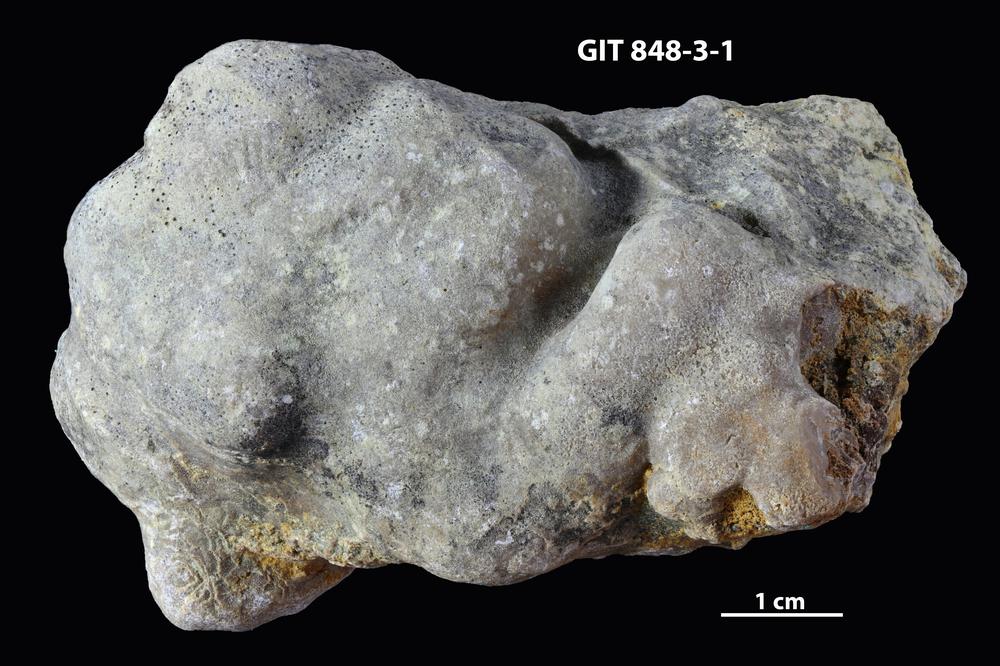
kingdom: Animalia
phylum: Porifera
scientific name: Porifera
